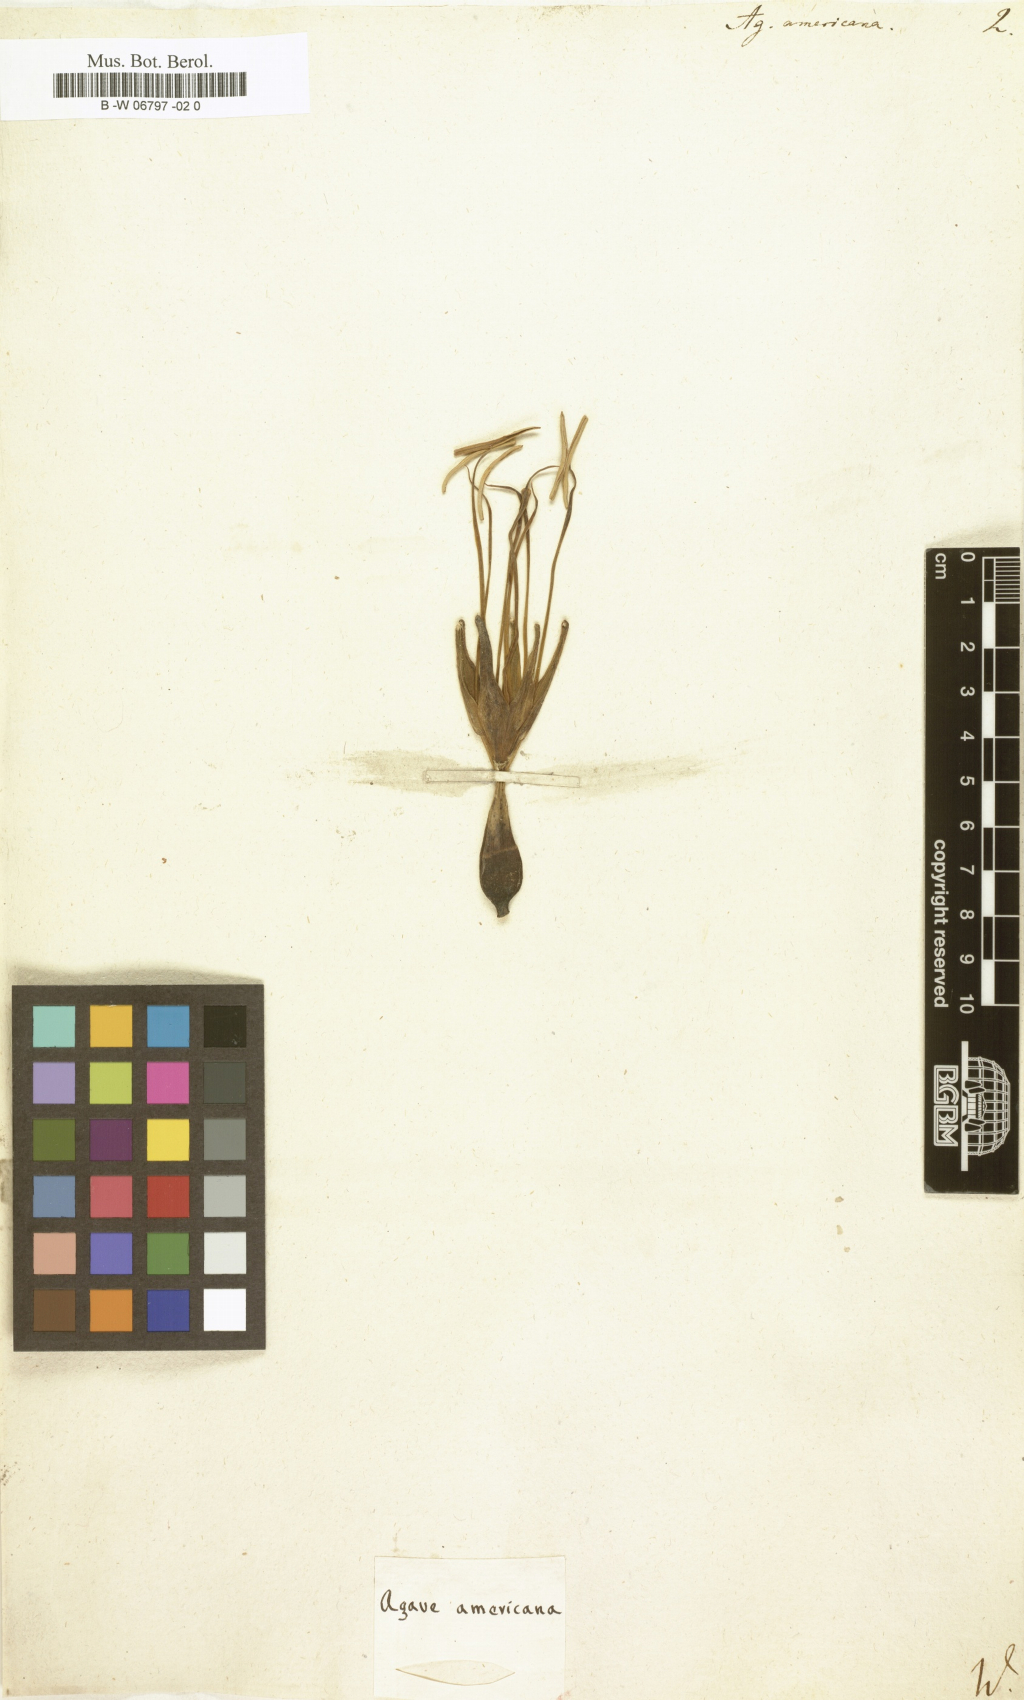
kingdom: Plantae
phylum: Tracheophyta
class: Liliopsida
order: Asparagales
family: Asparagaceae
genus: Agave
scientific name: Agave americana
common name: Centuryplant
